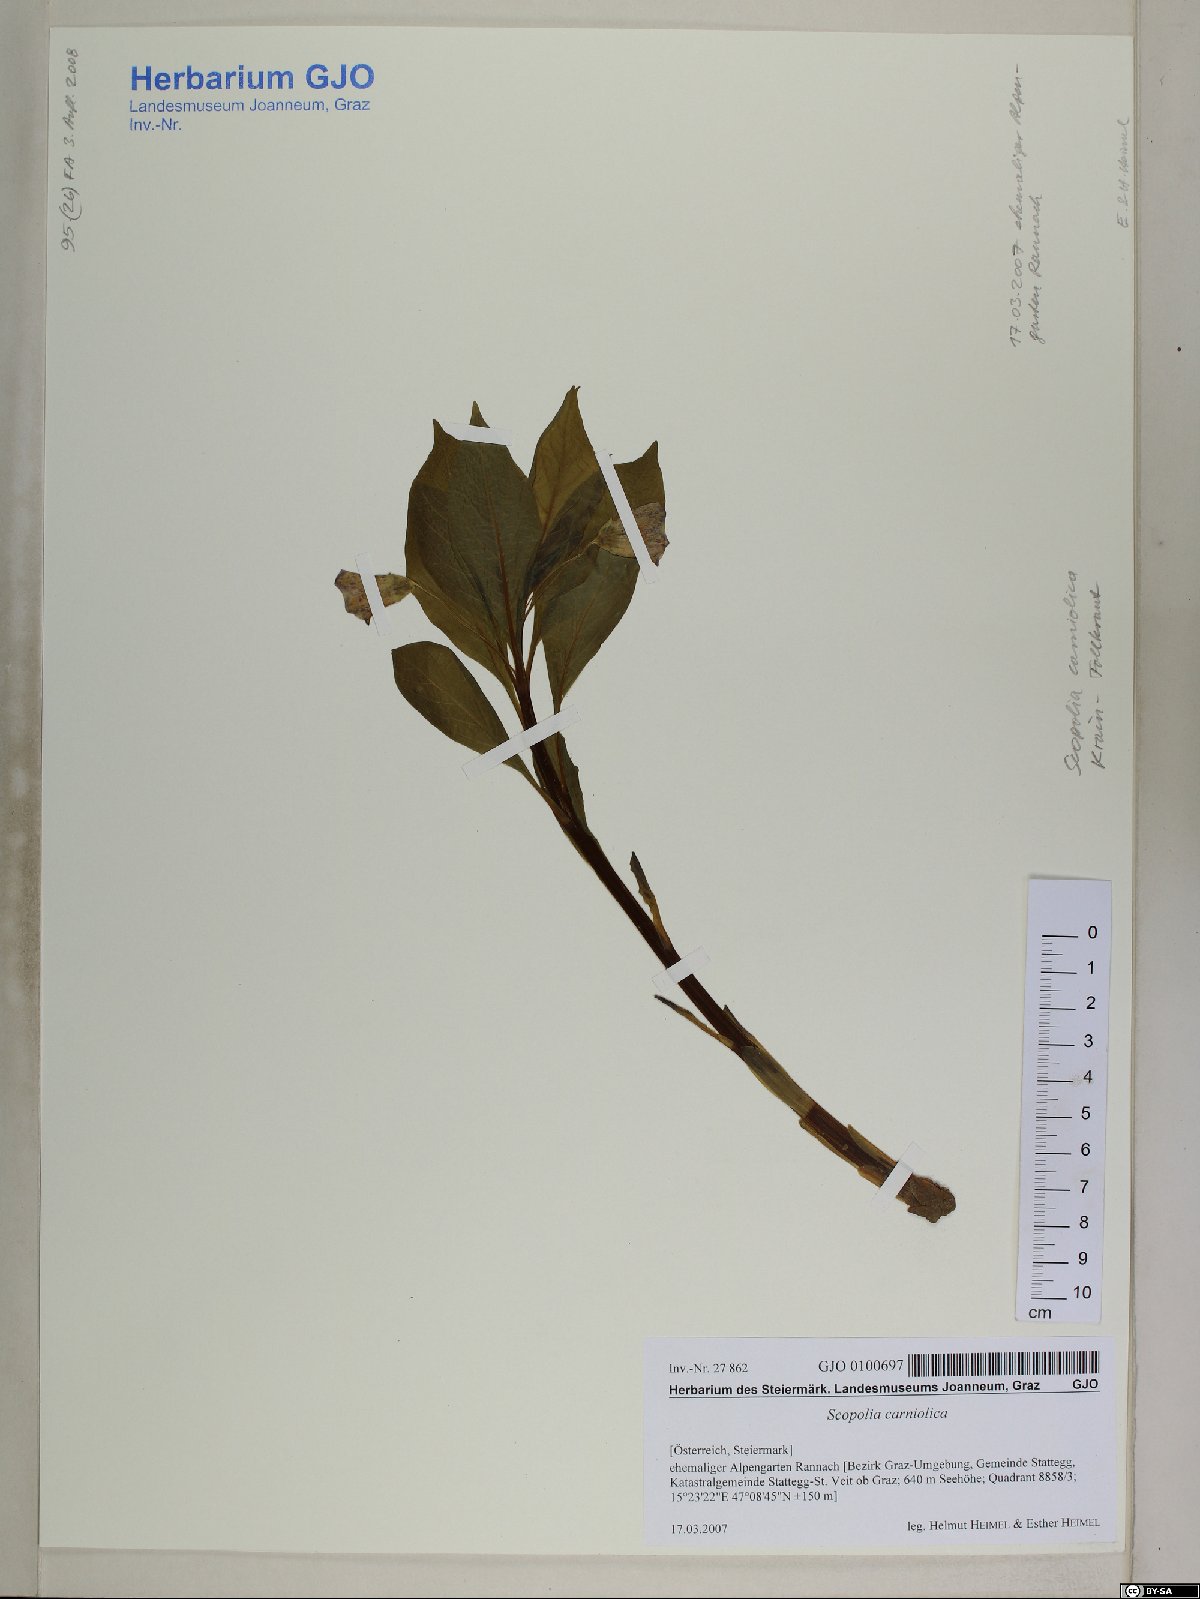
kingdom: Plantae
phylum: Tracheophyta
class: Magnoliopsida
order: Solanales
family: Solanaceae
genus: Scopolia
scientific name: Scopolia carniolica
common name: Scopolia
